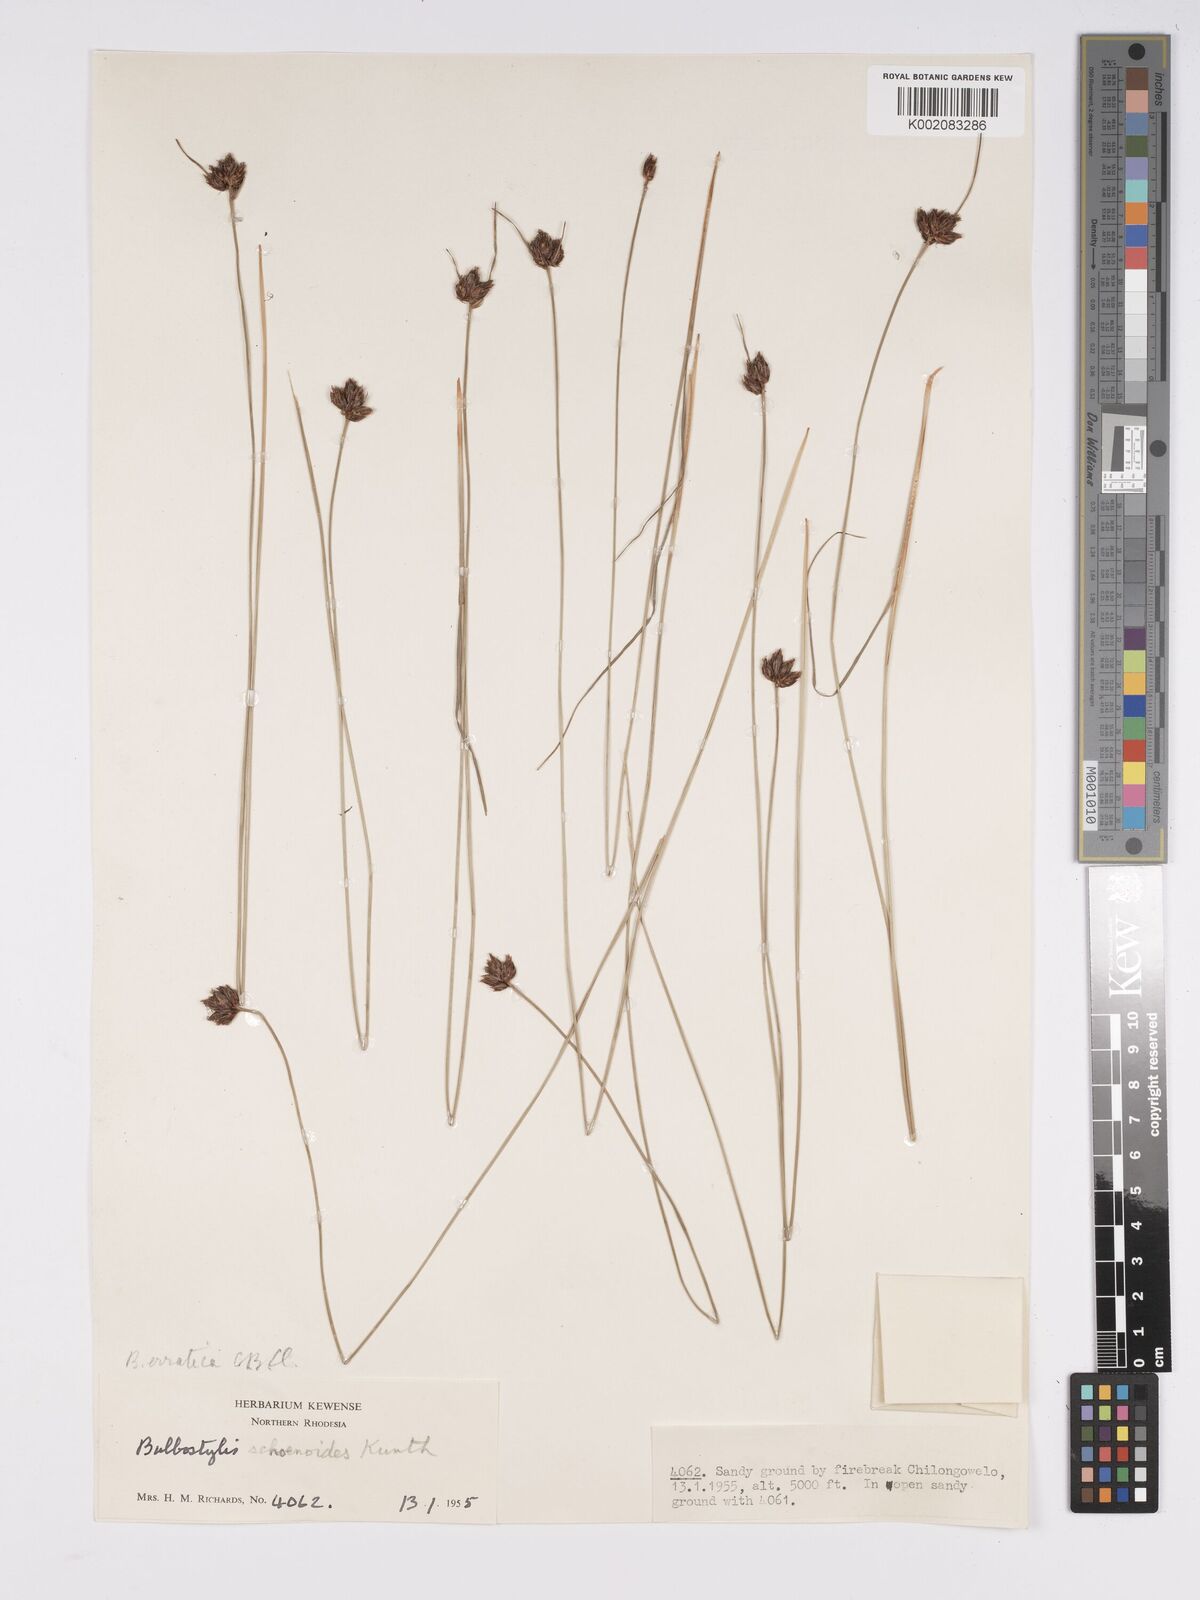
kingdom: Plantae
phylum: Tracheophyta
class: Liliopsida
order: Poales
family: Cyperaceae
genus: Bulbostylis
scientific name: Bulbostylis schoenoides
